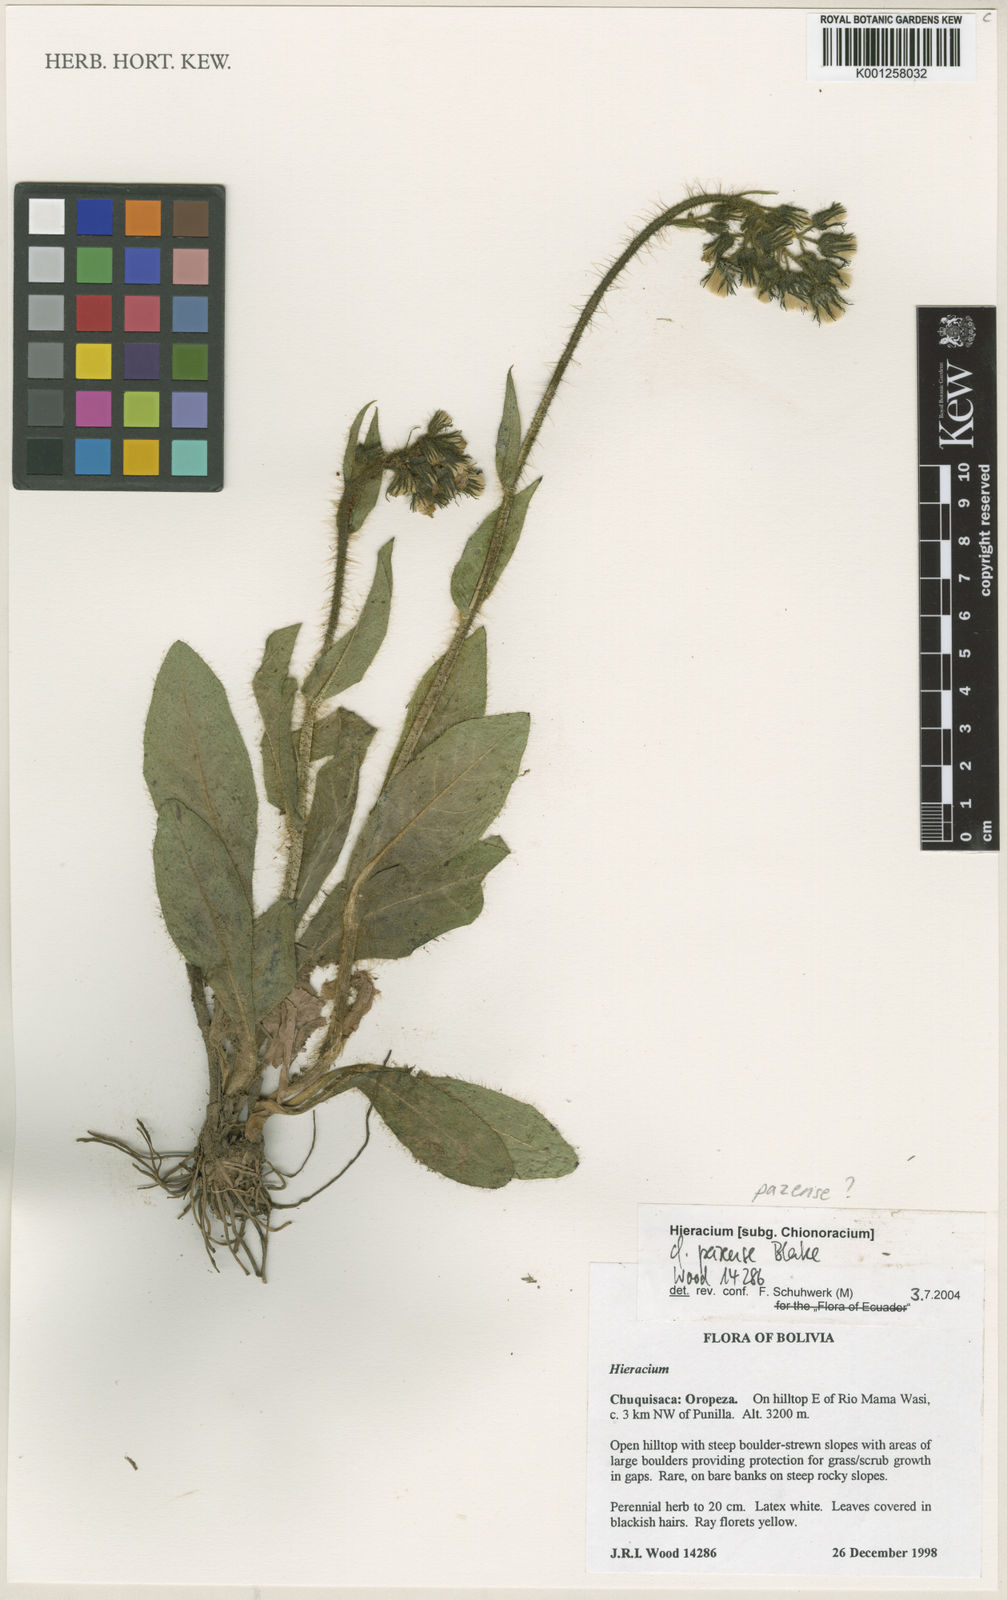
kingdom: Plantae
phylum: Tracheophyta
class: Magnoliopsida
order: Asterales
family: Asteraceae
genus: Hieracium
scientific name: Hieracium pazense
